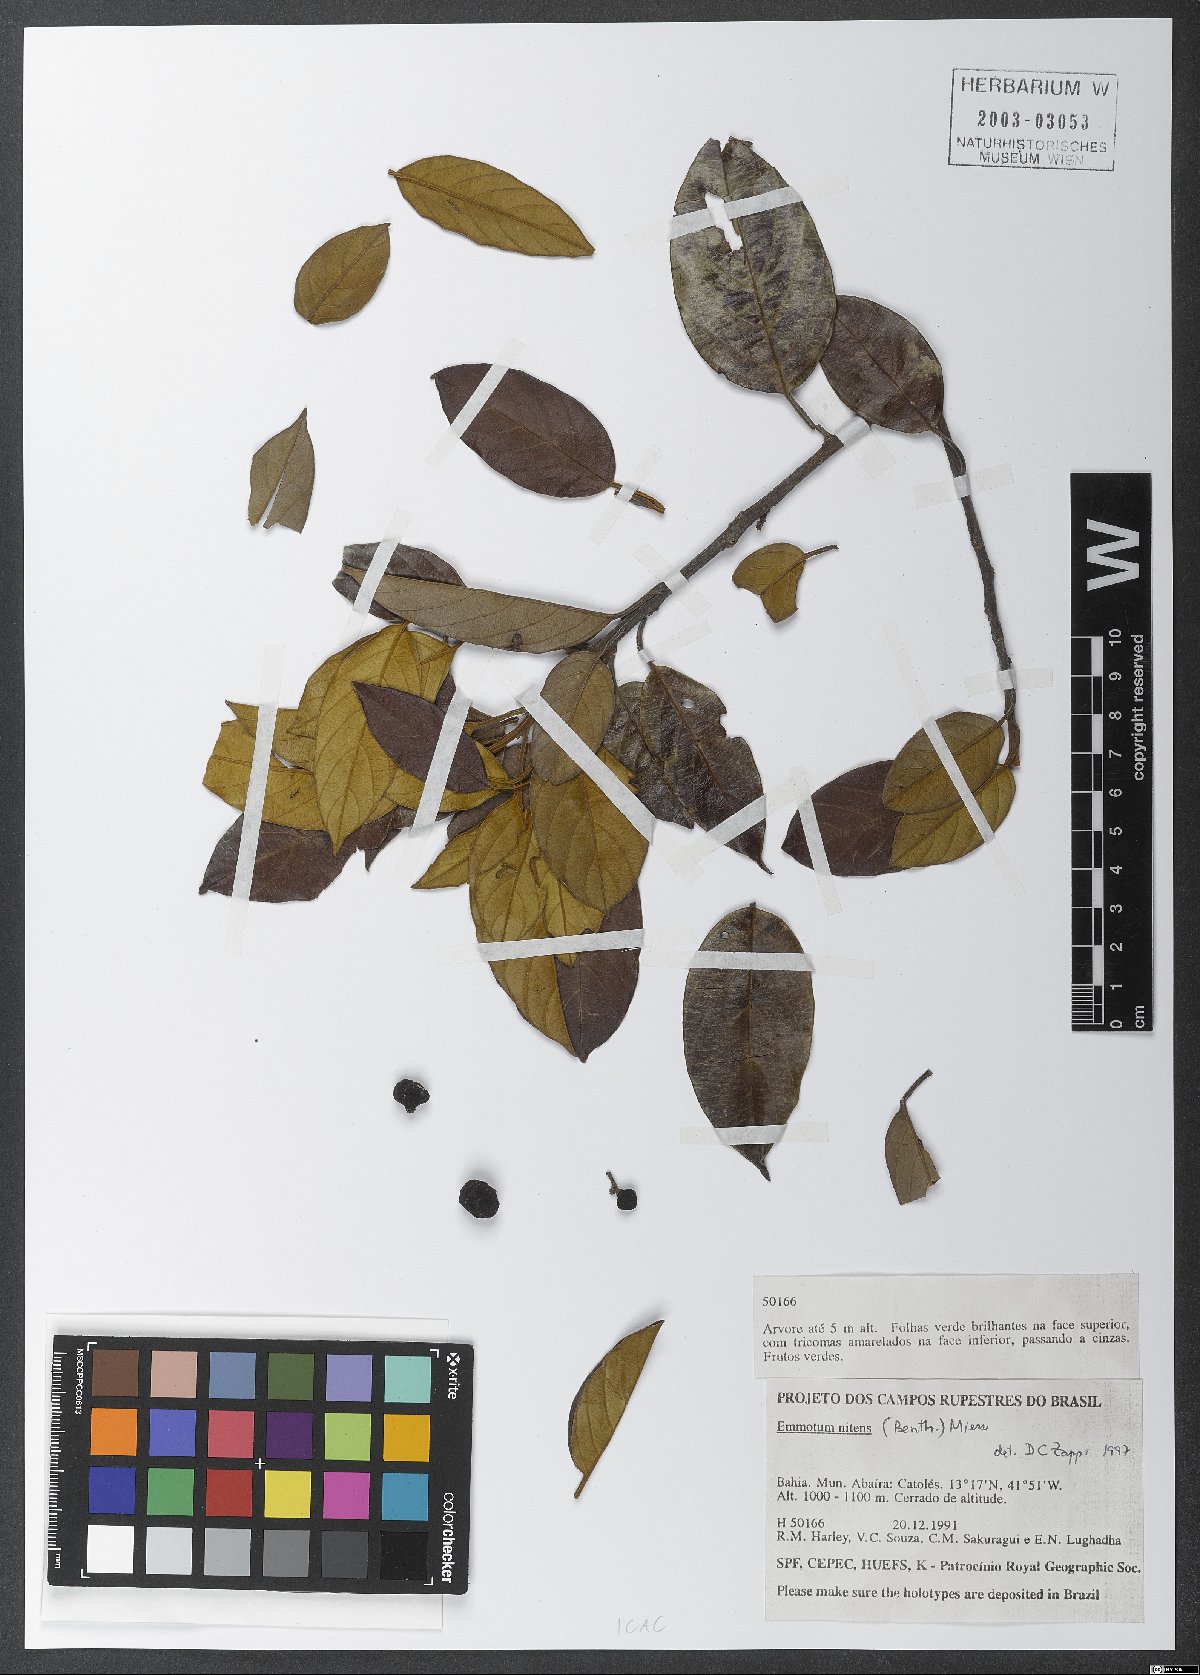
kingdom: Plantae
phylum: Tracheophyta
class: Magnoliopsida
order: Metteniusales
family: Metteniusaceae
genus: Emmotum
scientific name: Emmotum nitens
